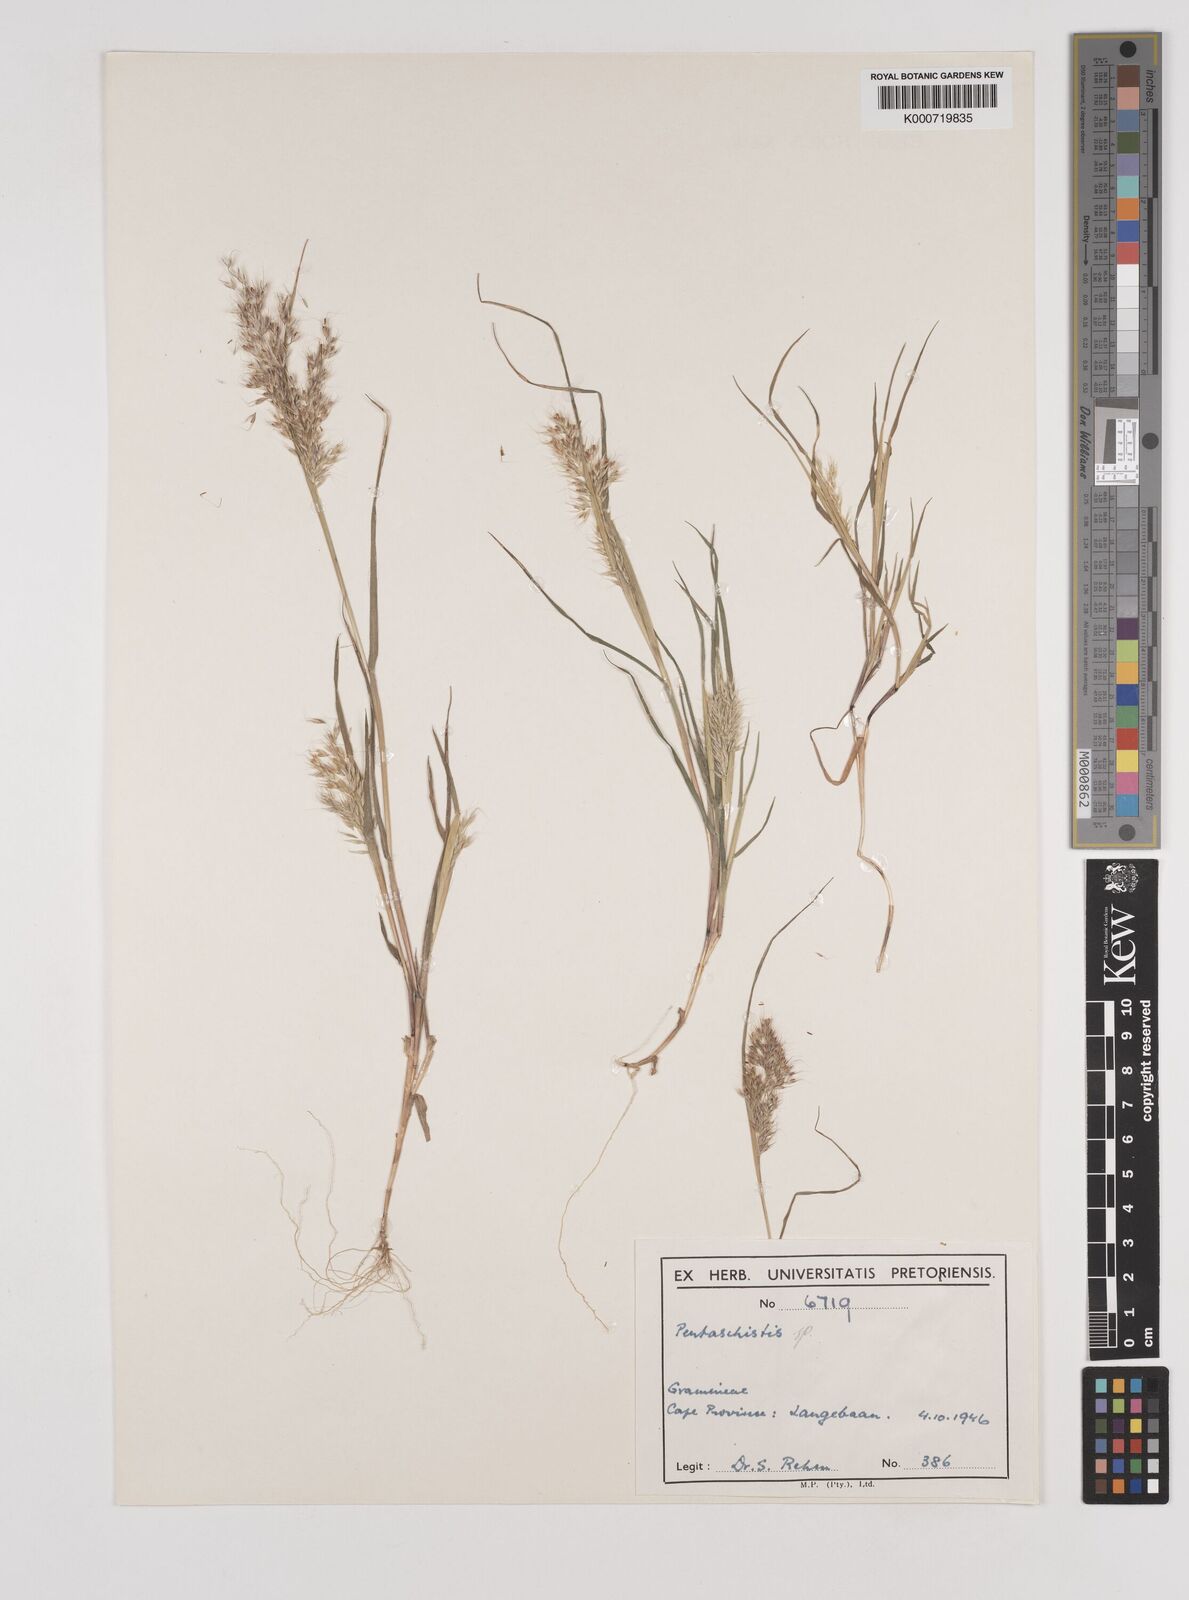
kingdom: Plantae
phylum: Tracheophyta
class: Liliopsida
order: Poales
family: Poaceae
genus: Pentaschistis
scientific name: Pentaschistis
